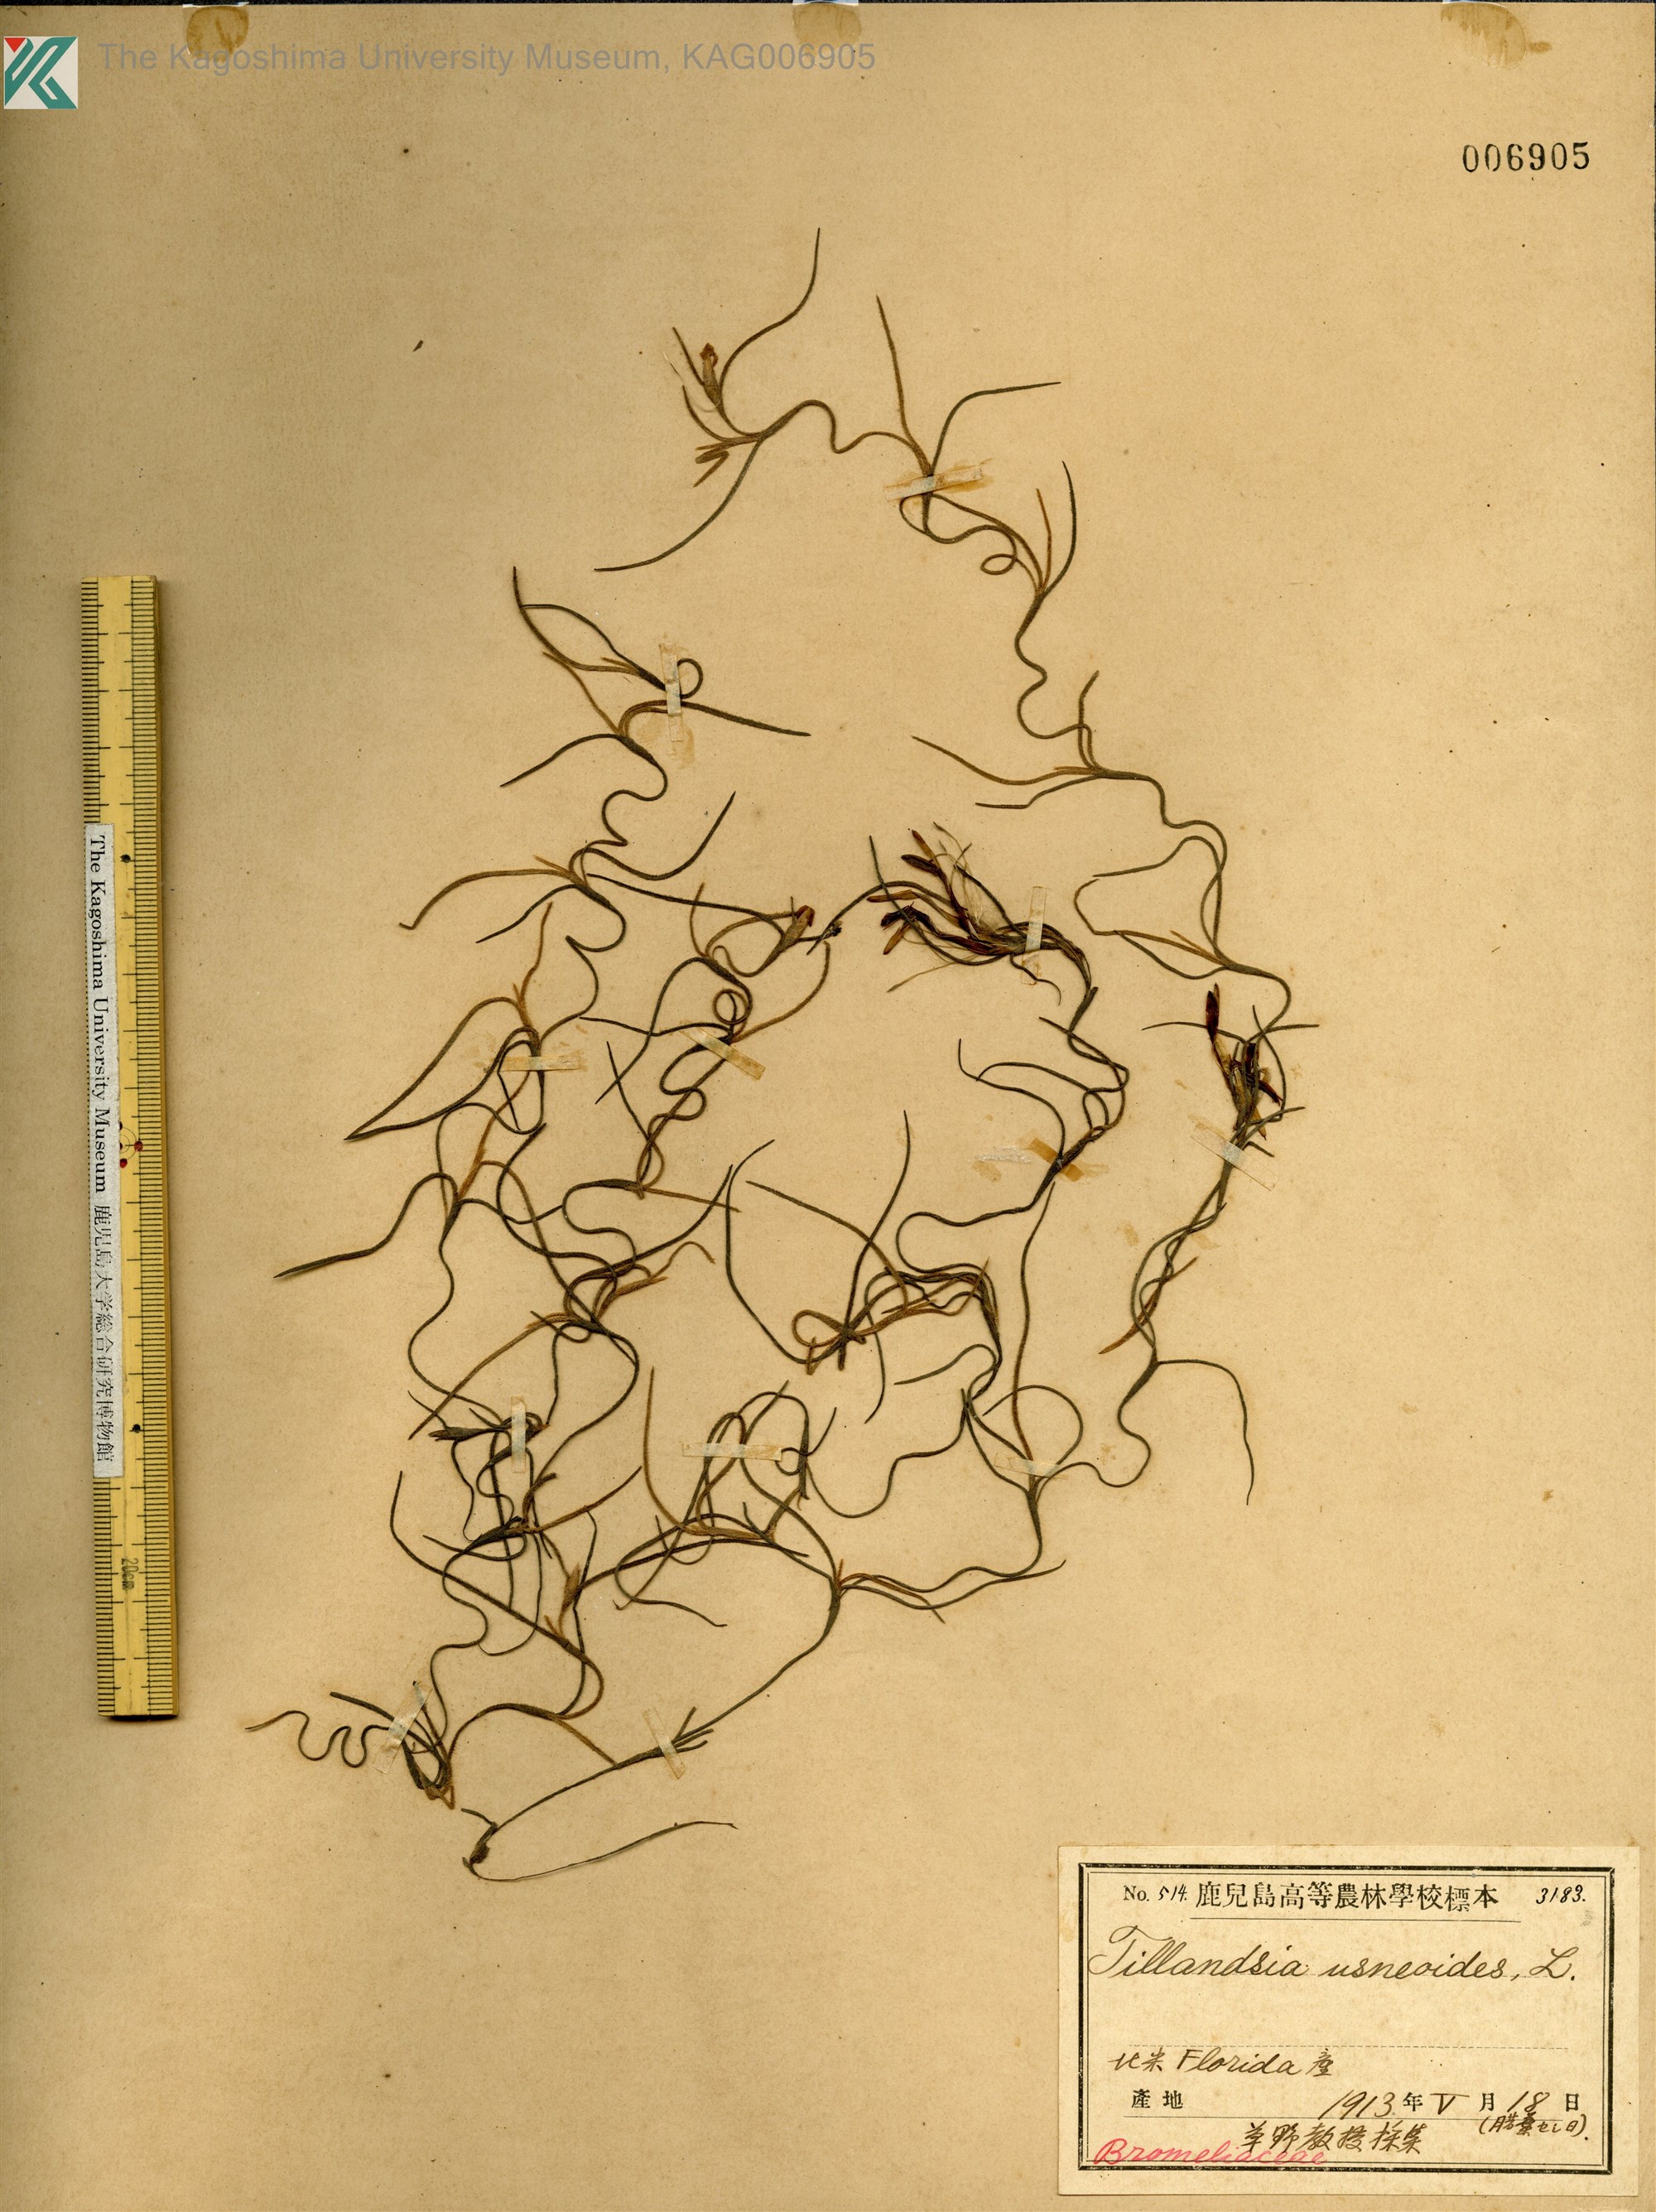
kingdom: Plantae
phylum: Tracheophyta
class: Liliopsida
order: Poales
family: Bromeliaceae
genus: Tillandsia
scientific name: Tillandsia usneoides
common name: Spanish moss
